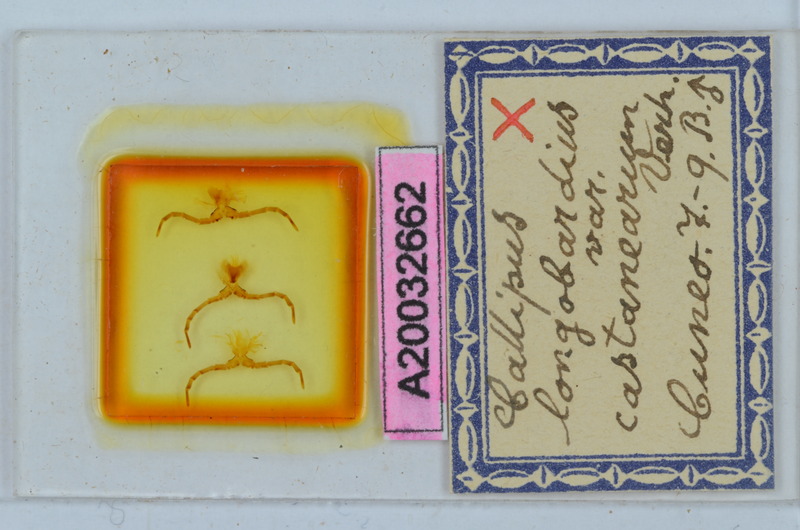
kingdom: Animalia
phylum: Arthropoda
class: Diplopoda
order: Callipodida
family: Callipodidae
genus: Callipus
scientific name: Callipus foetidissimus
